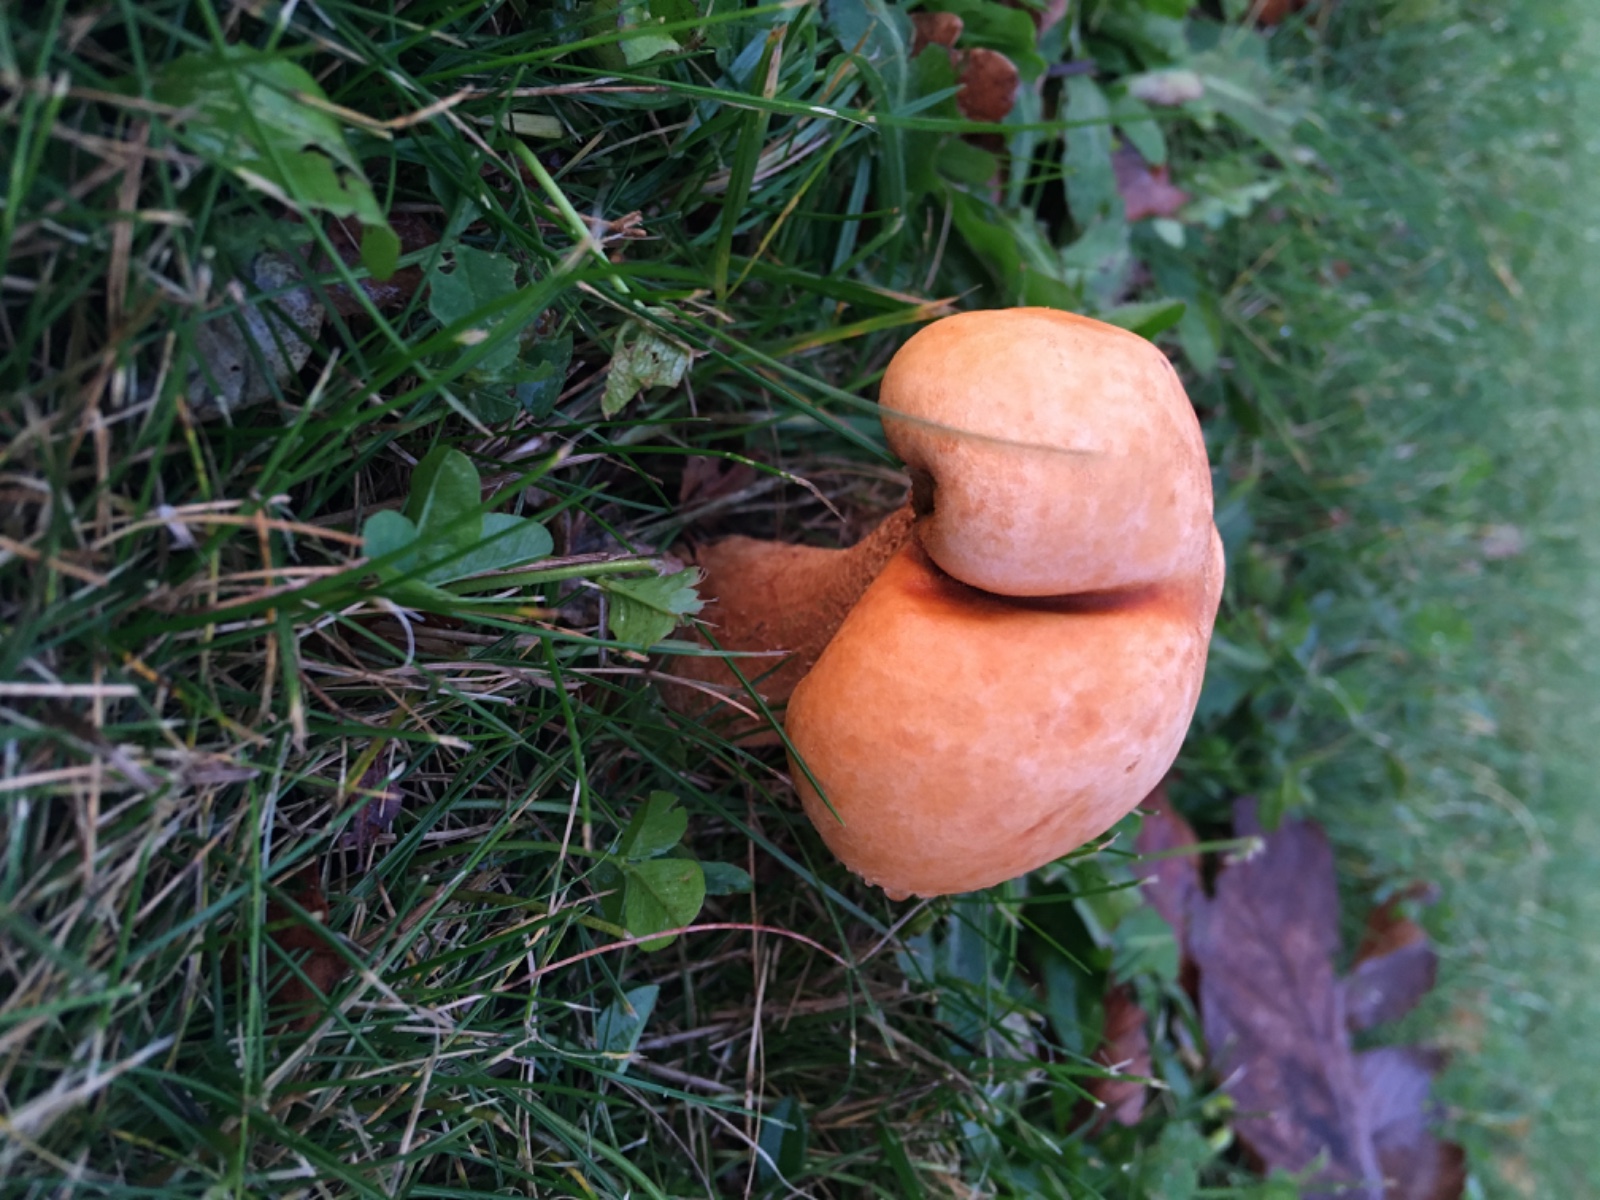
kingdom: Fungi
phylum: Basidiomycota
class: Agaricomycetes
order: Agaricales
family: Tricholomataceae
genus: Phaeolepiota
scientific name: Phaeolepiota aurea
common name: gyldenhat
